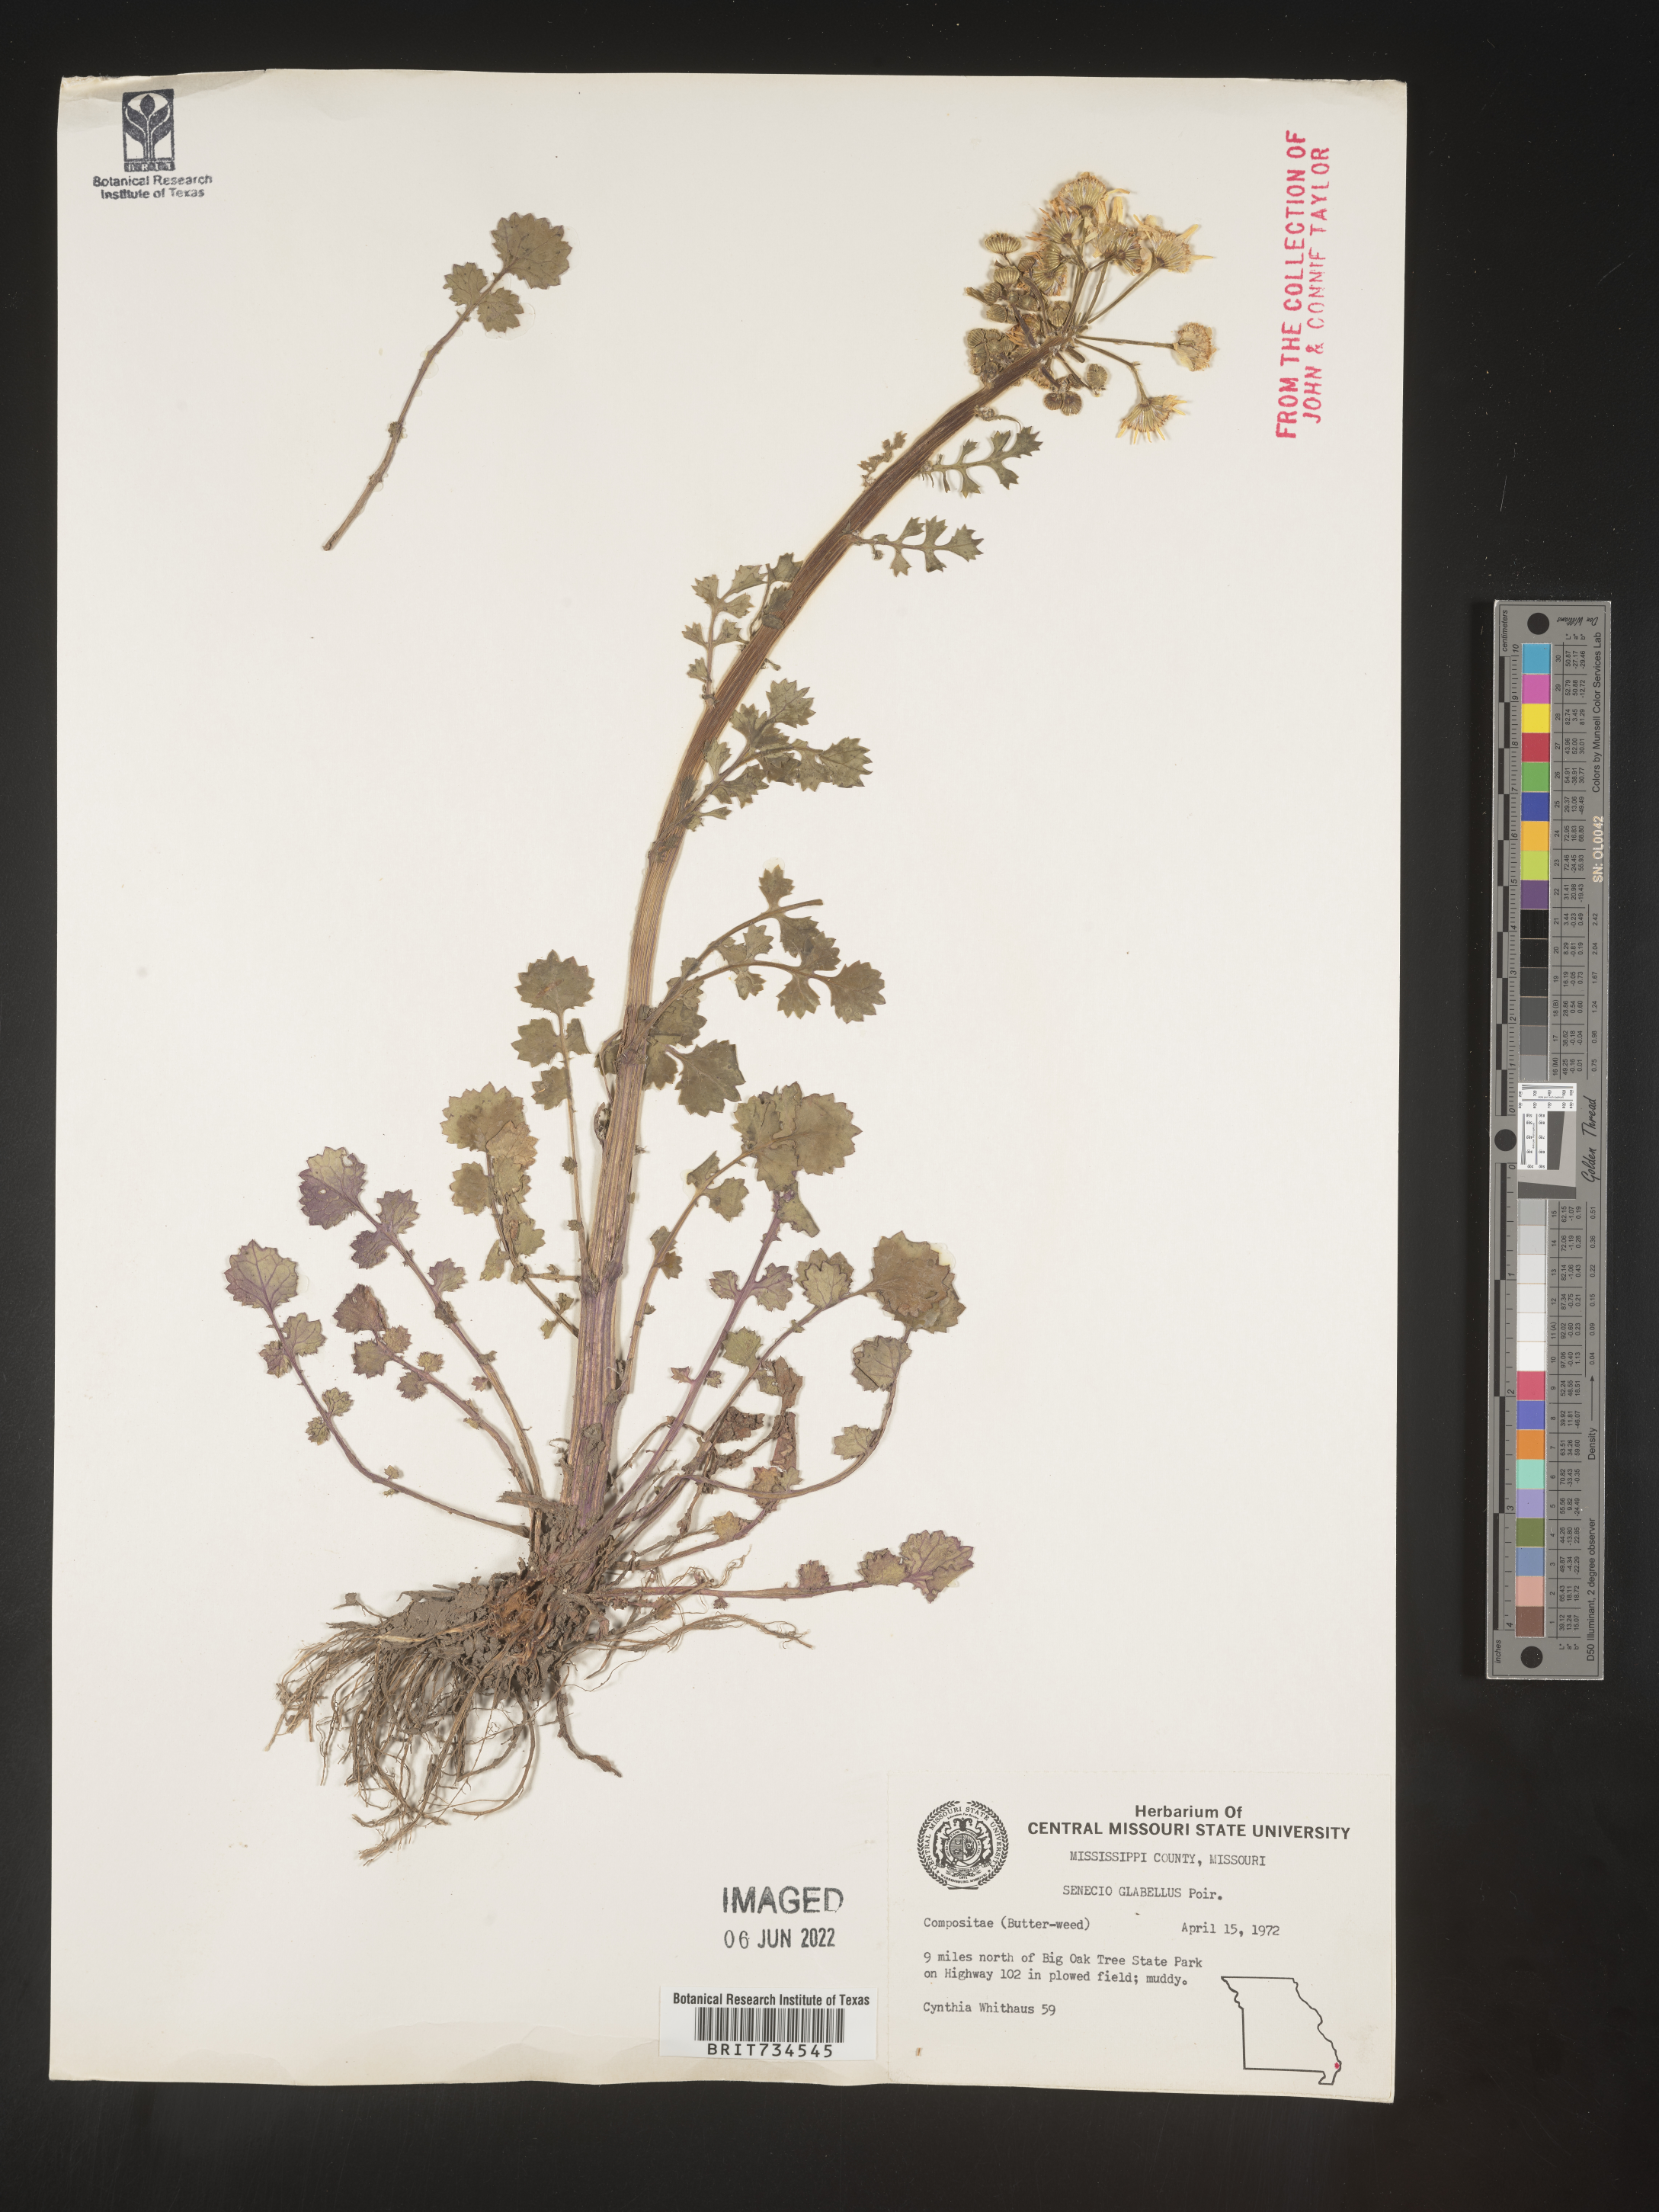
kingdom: Plantae
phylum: Tracheophyta
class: Magnoliopsida
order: Asterales
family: Asteraceae
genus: Packera
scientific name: Packera glabella
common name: Butterweed
